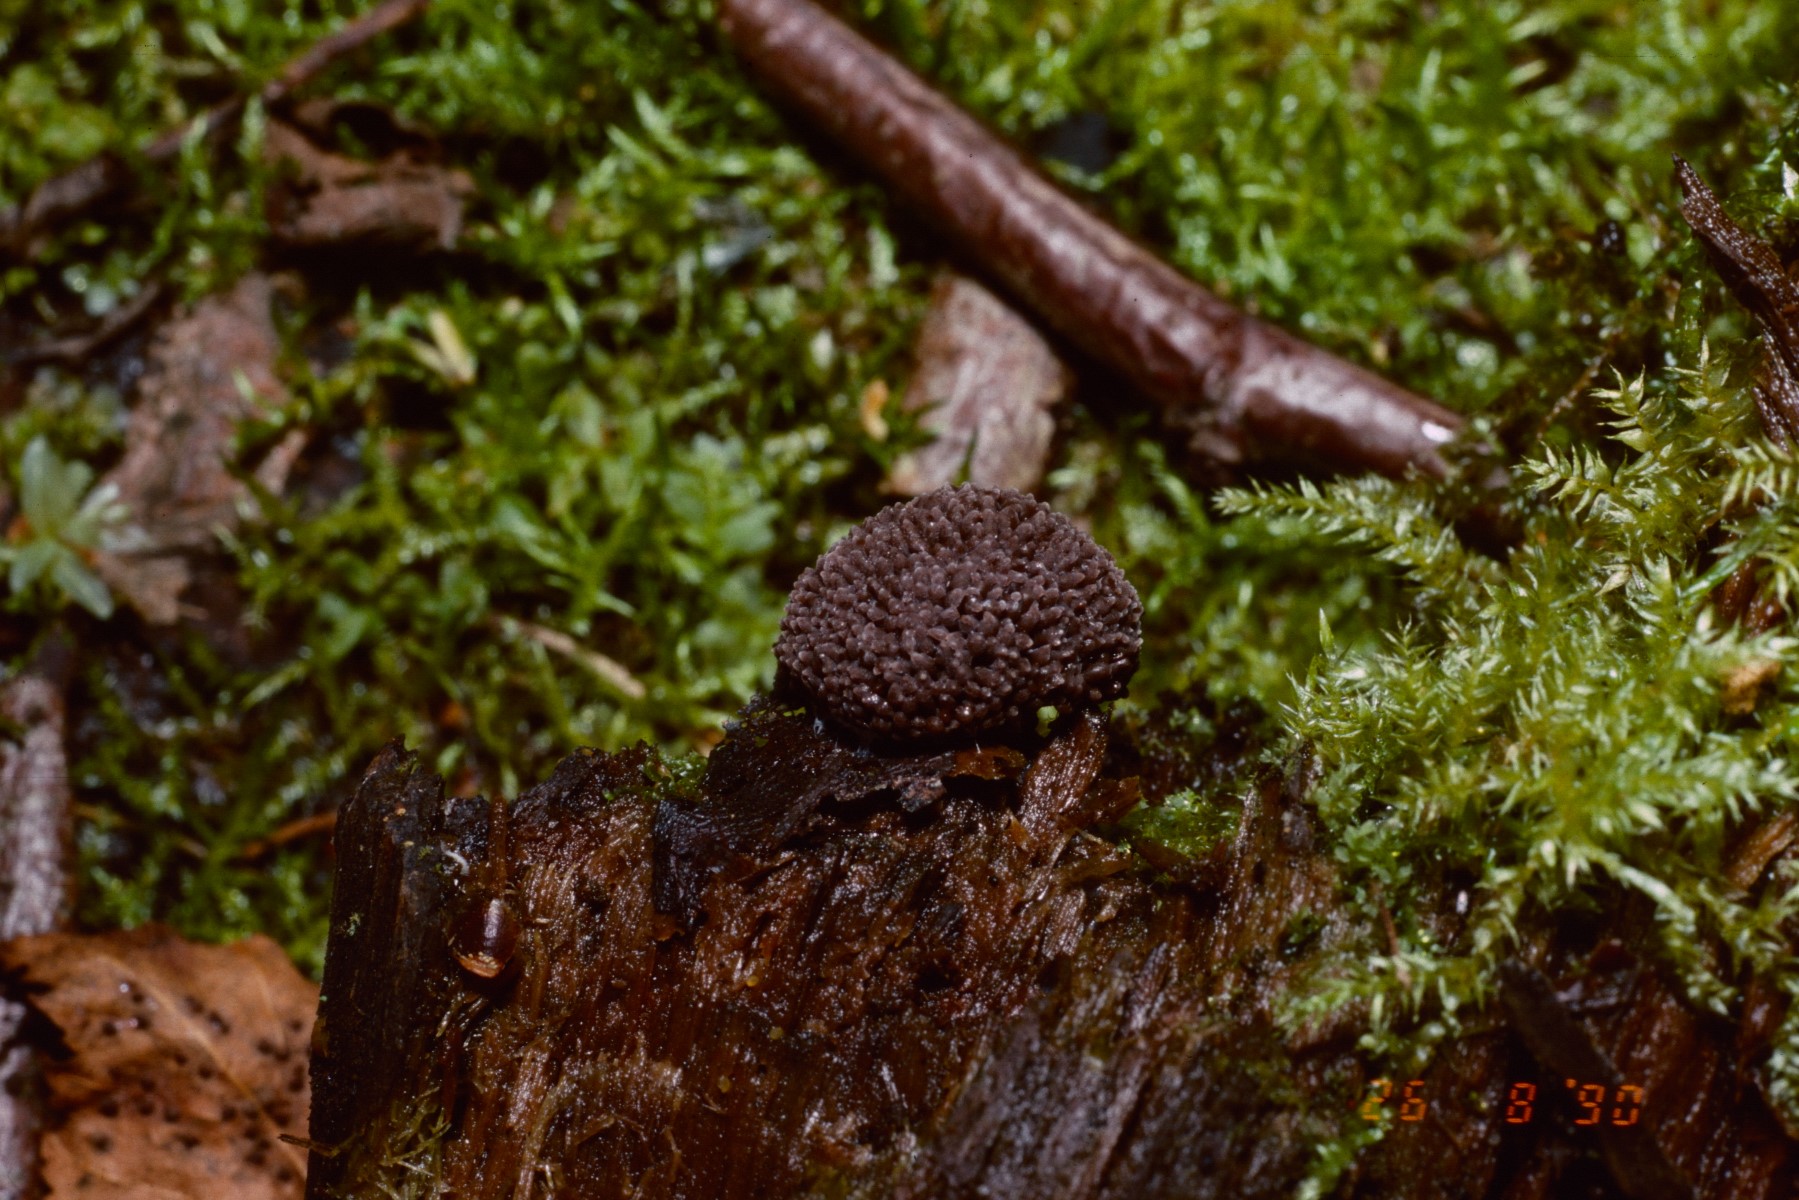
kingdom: Protozoa
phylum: Mycetozoa
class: Myxomycetes
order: Cribrariales
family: Tubiferaceae
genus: Tubifera
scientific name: Tubifera ferruginosa
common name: kanel-støvrør
